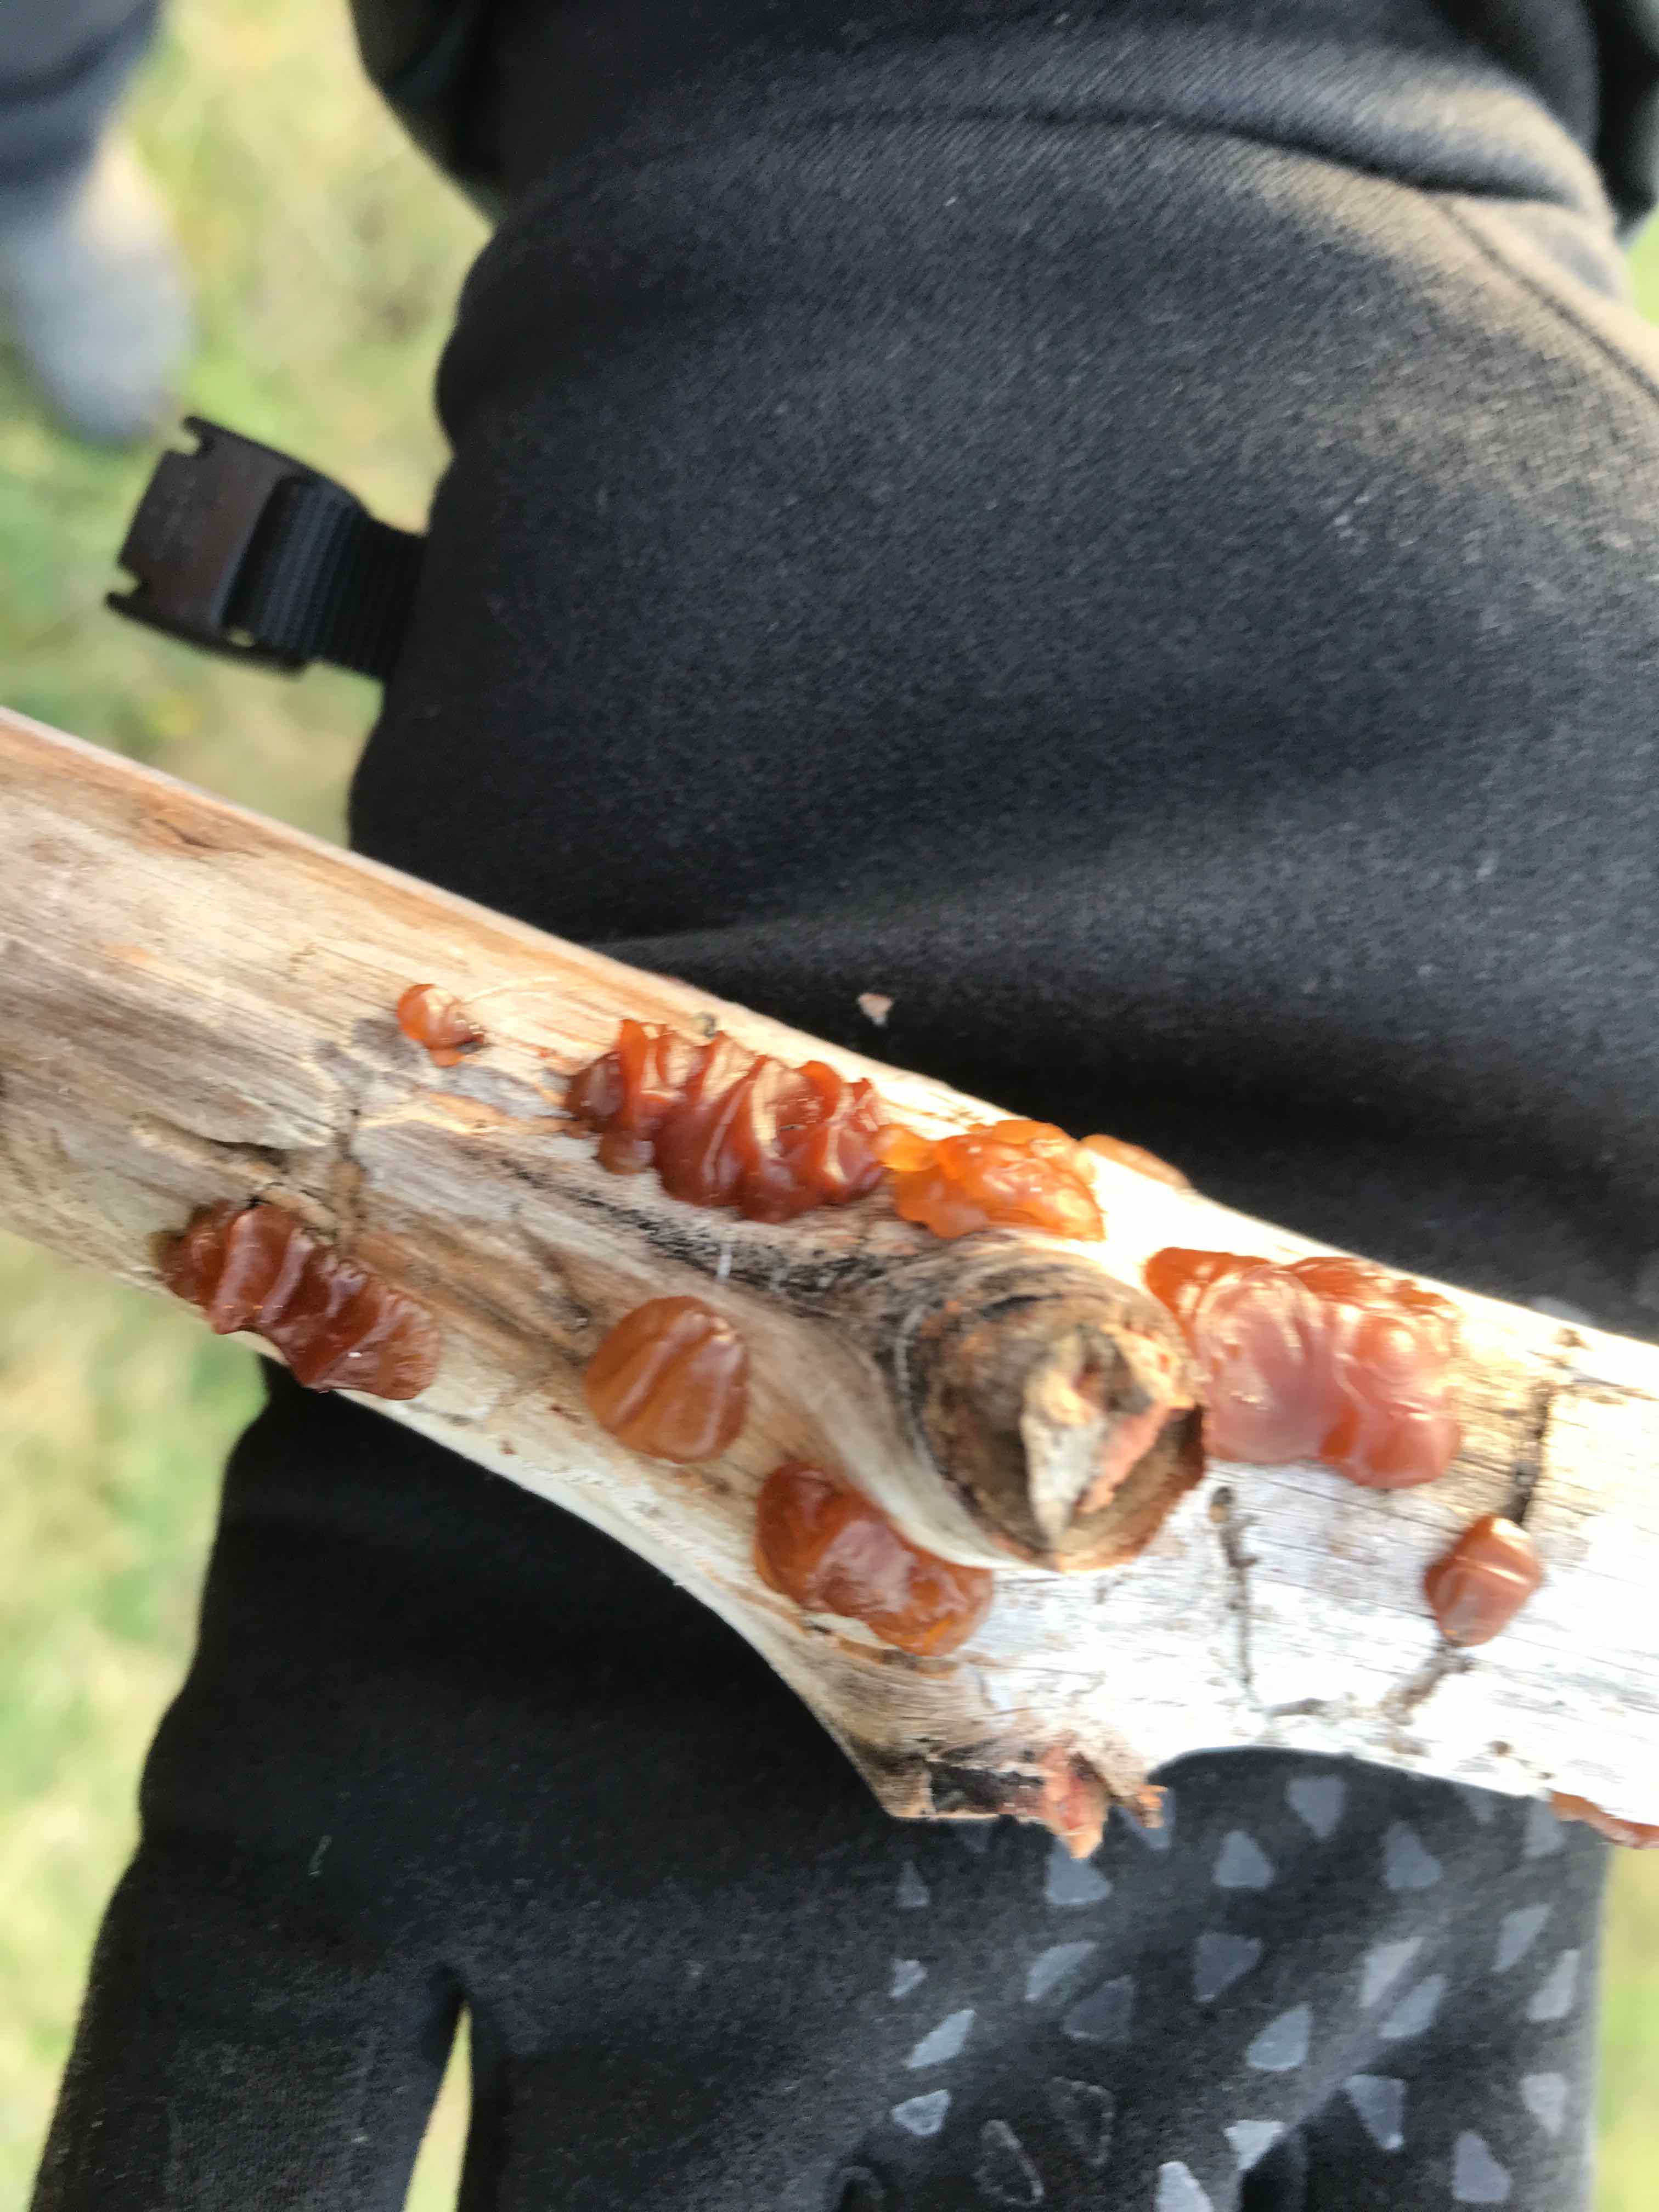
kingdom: Fungi
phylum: Basidiomycota
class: Agaricomycetes
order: Auriculariales
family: Auriculariaceae
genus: Exidia
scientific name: Exidia saccharina
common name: kandis-bævretop
